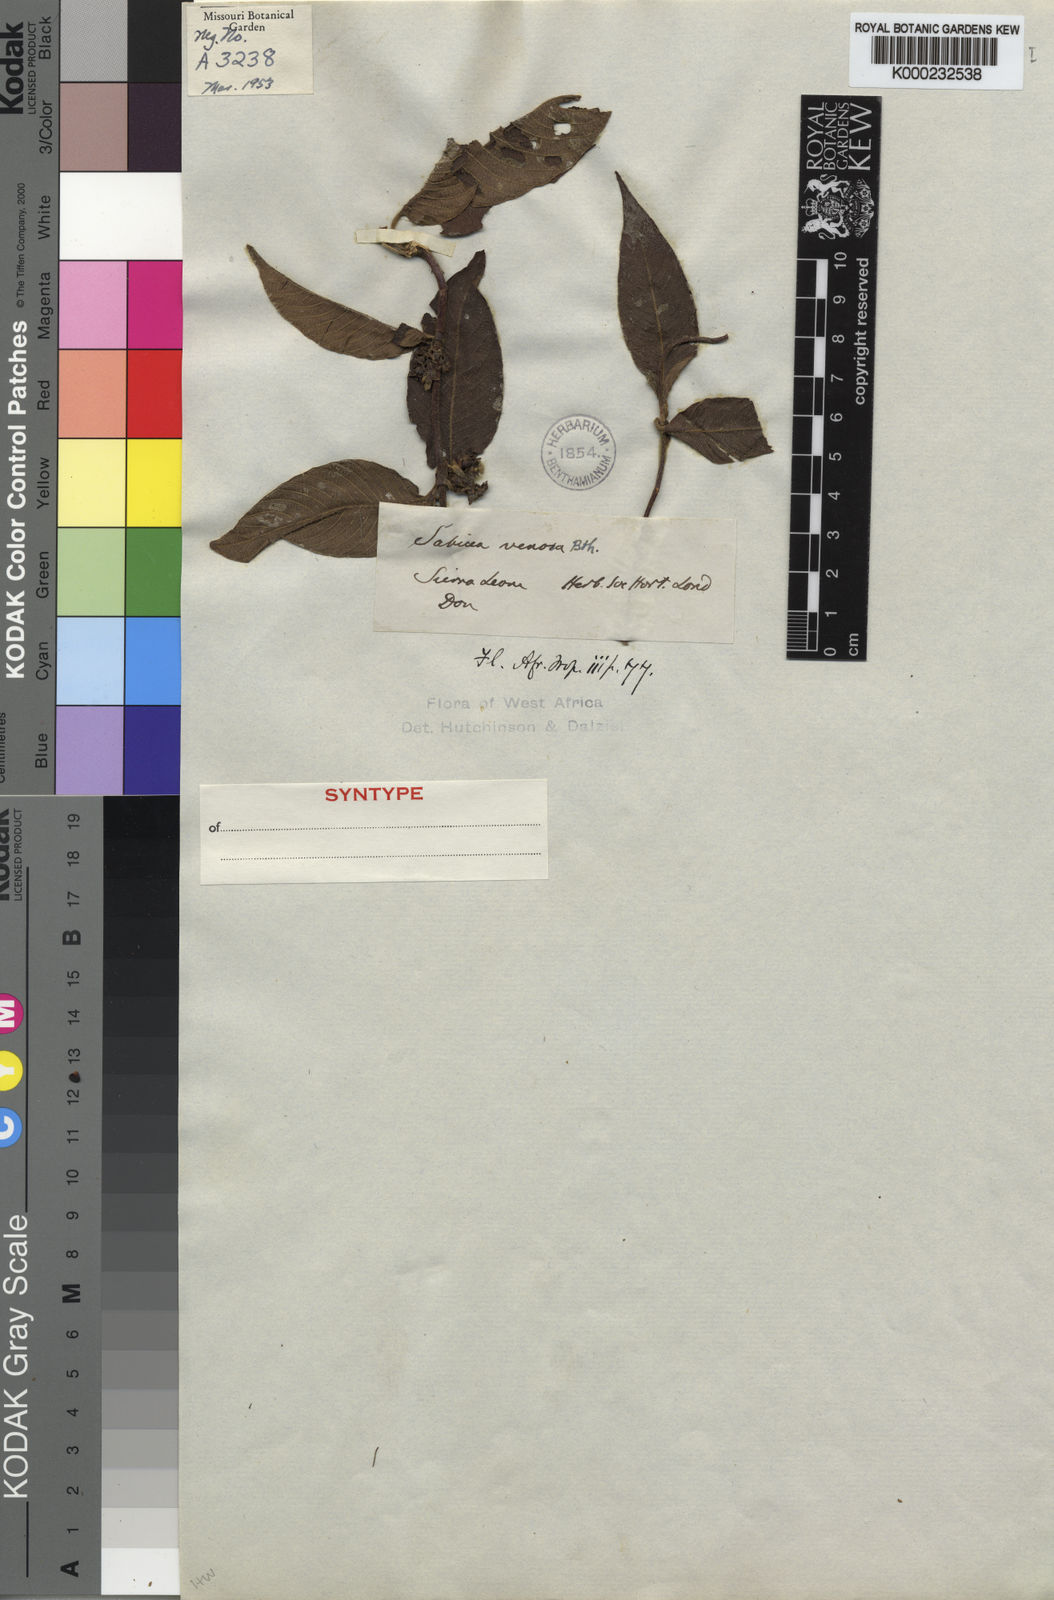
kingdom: Plantae
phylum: Tracheophyta
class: Magnoliopsida
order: Gentianales
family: Rubiaceae
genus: Sabicea
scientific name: Sabicea venosa
